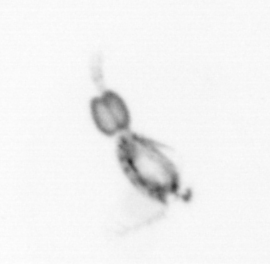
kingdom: Animalia
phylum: Arthropoda
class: Copepoda
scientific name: Copepoda
